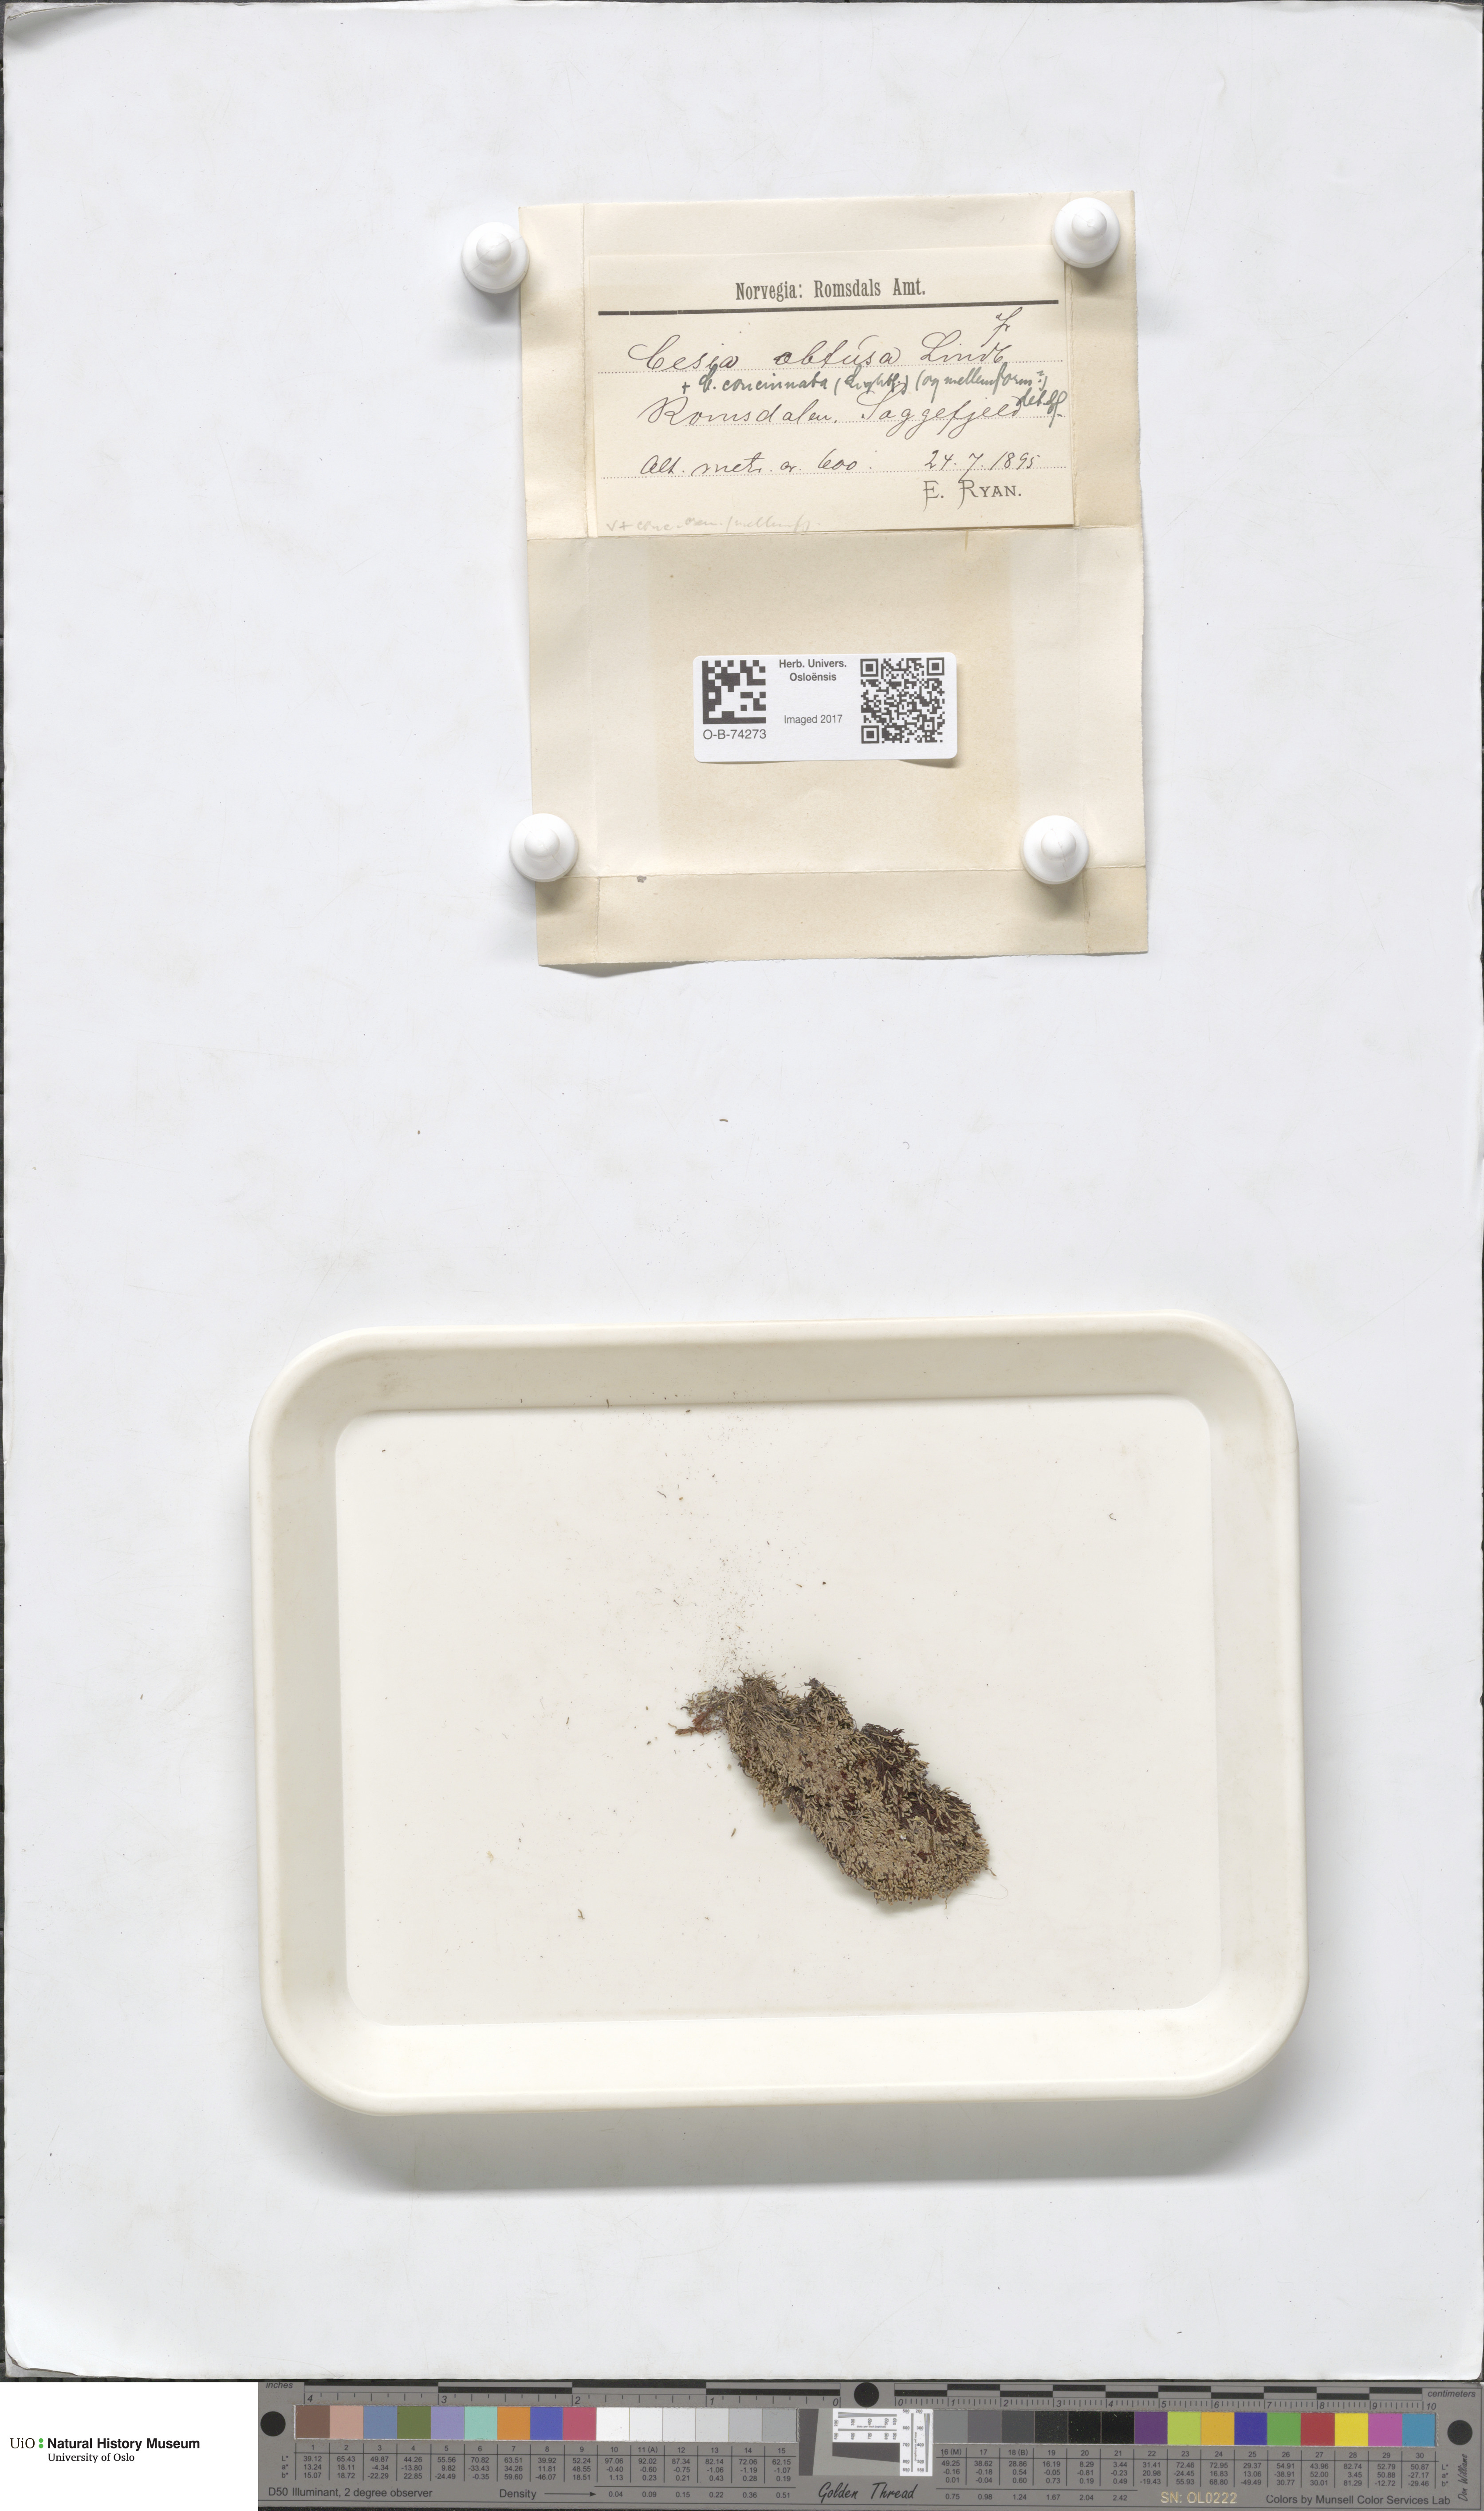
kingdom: Plantae
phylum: Marchantiophyta
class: Jungermanniopsida
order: Jungermanniales
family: Gymnomitriaceae
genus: Gymnomitrion
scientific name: Gymnomitrion obtusum
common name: White frostwort
